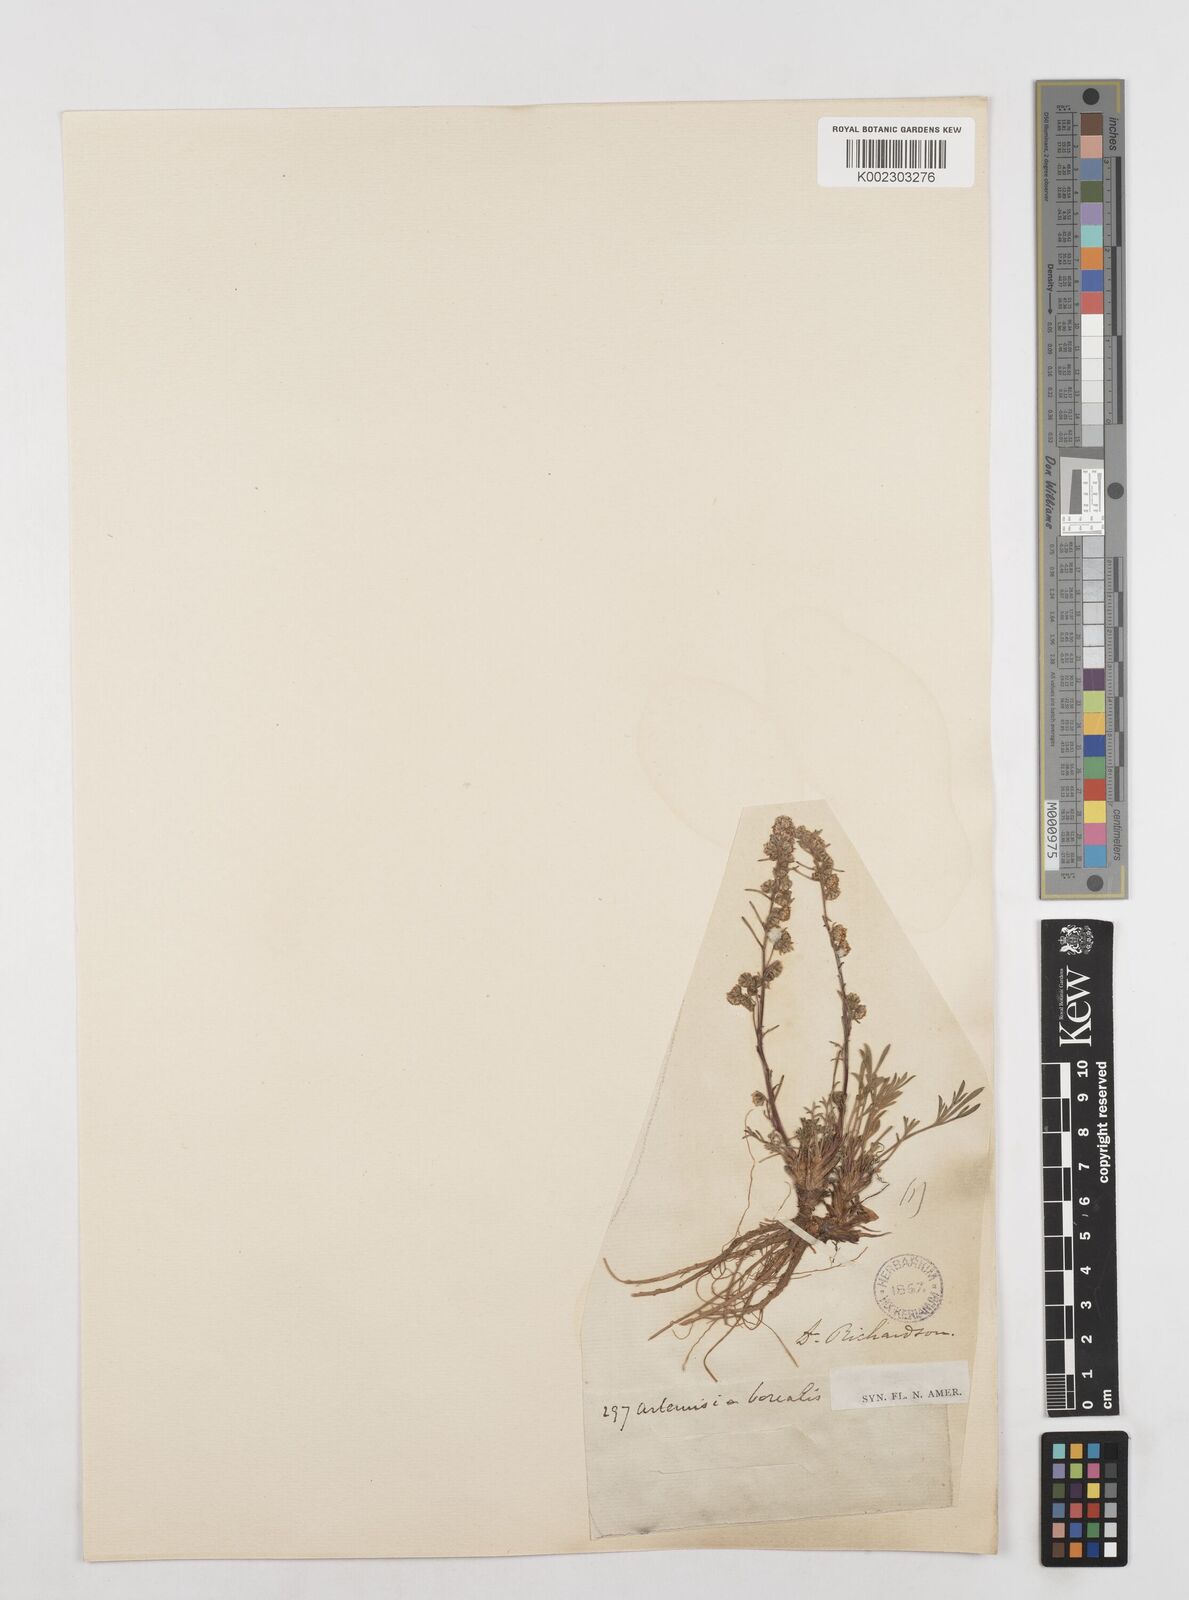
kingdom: Plantae
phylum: Tracheophyta
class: Magnoliopsida
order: Asterales
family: Asteraceae
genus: Artemisia
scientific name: Artemisia borealis
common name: Boreal sage
